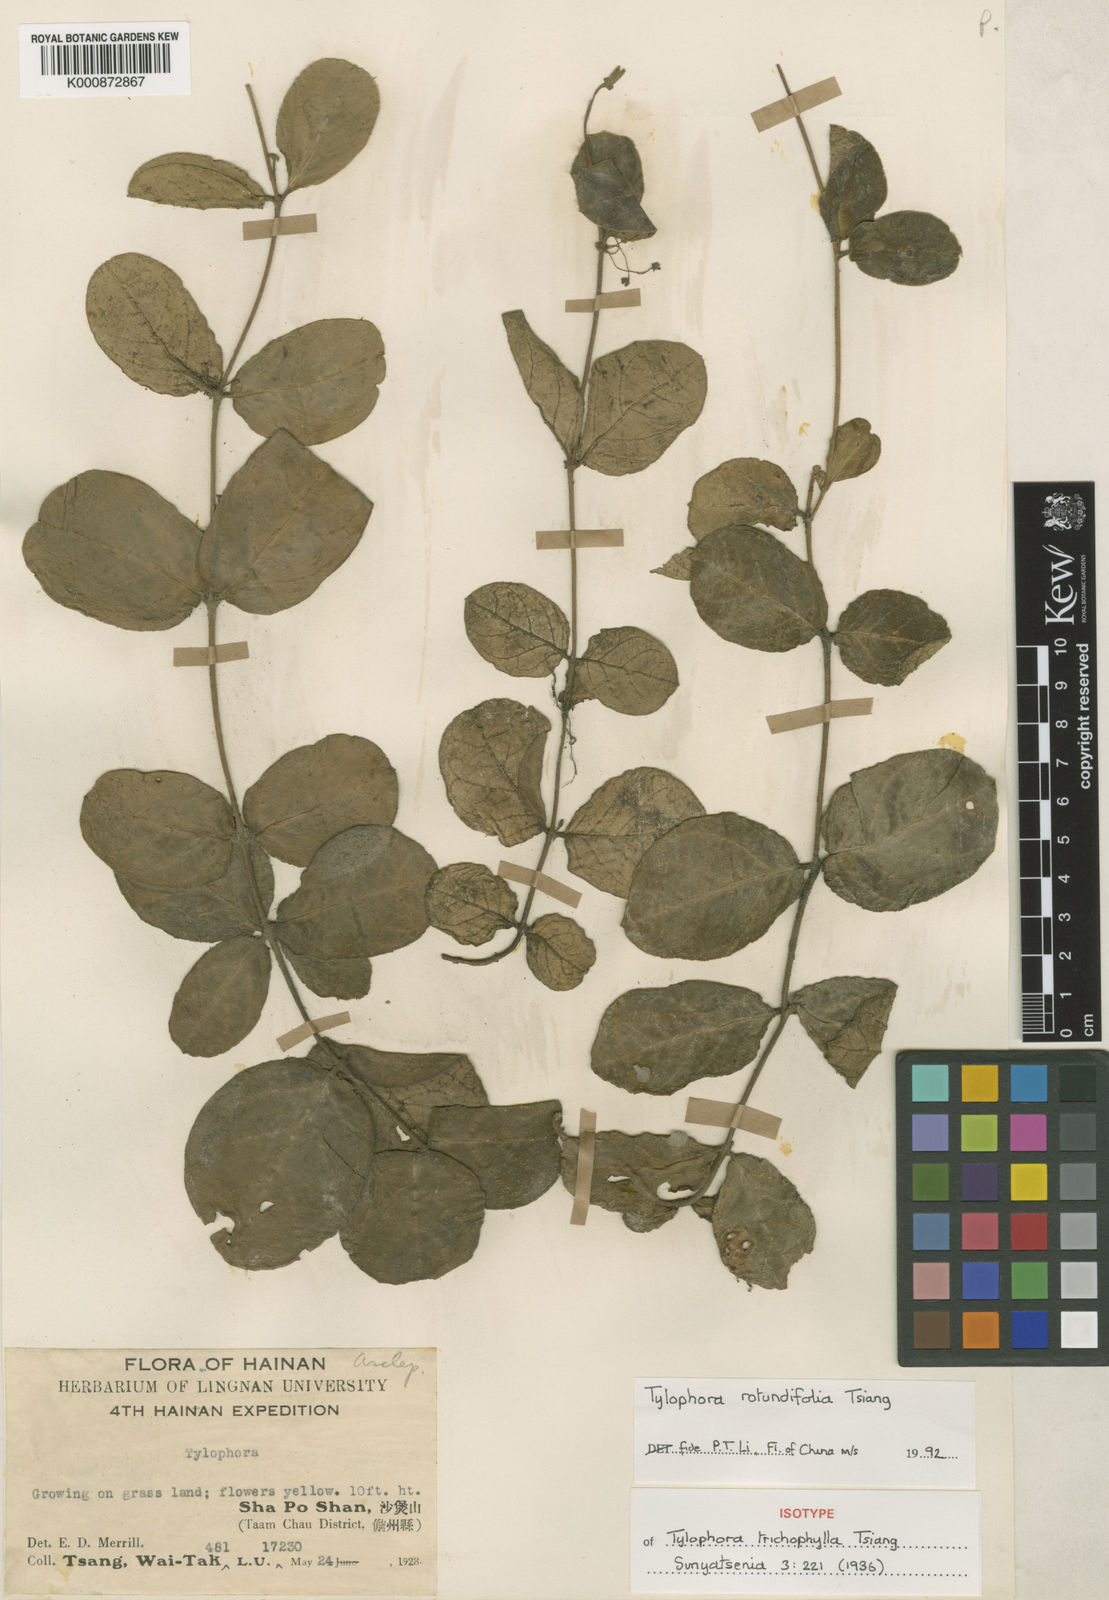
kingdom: Plantae
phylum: Tracheophyta
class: Magnoliopsida
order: Gentianales
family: Apocynaceae
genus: Vincetoxicum
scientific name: Vincetoxicum rotundifolium
